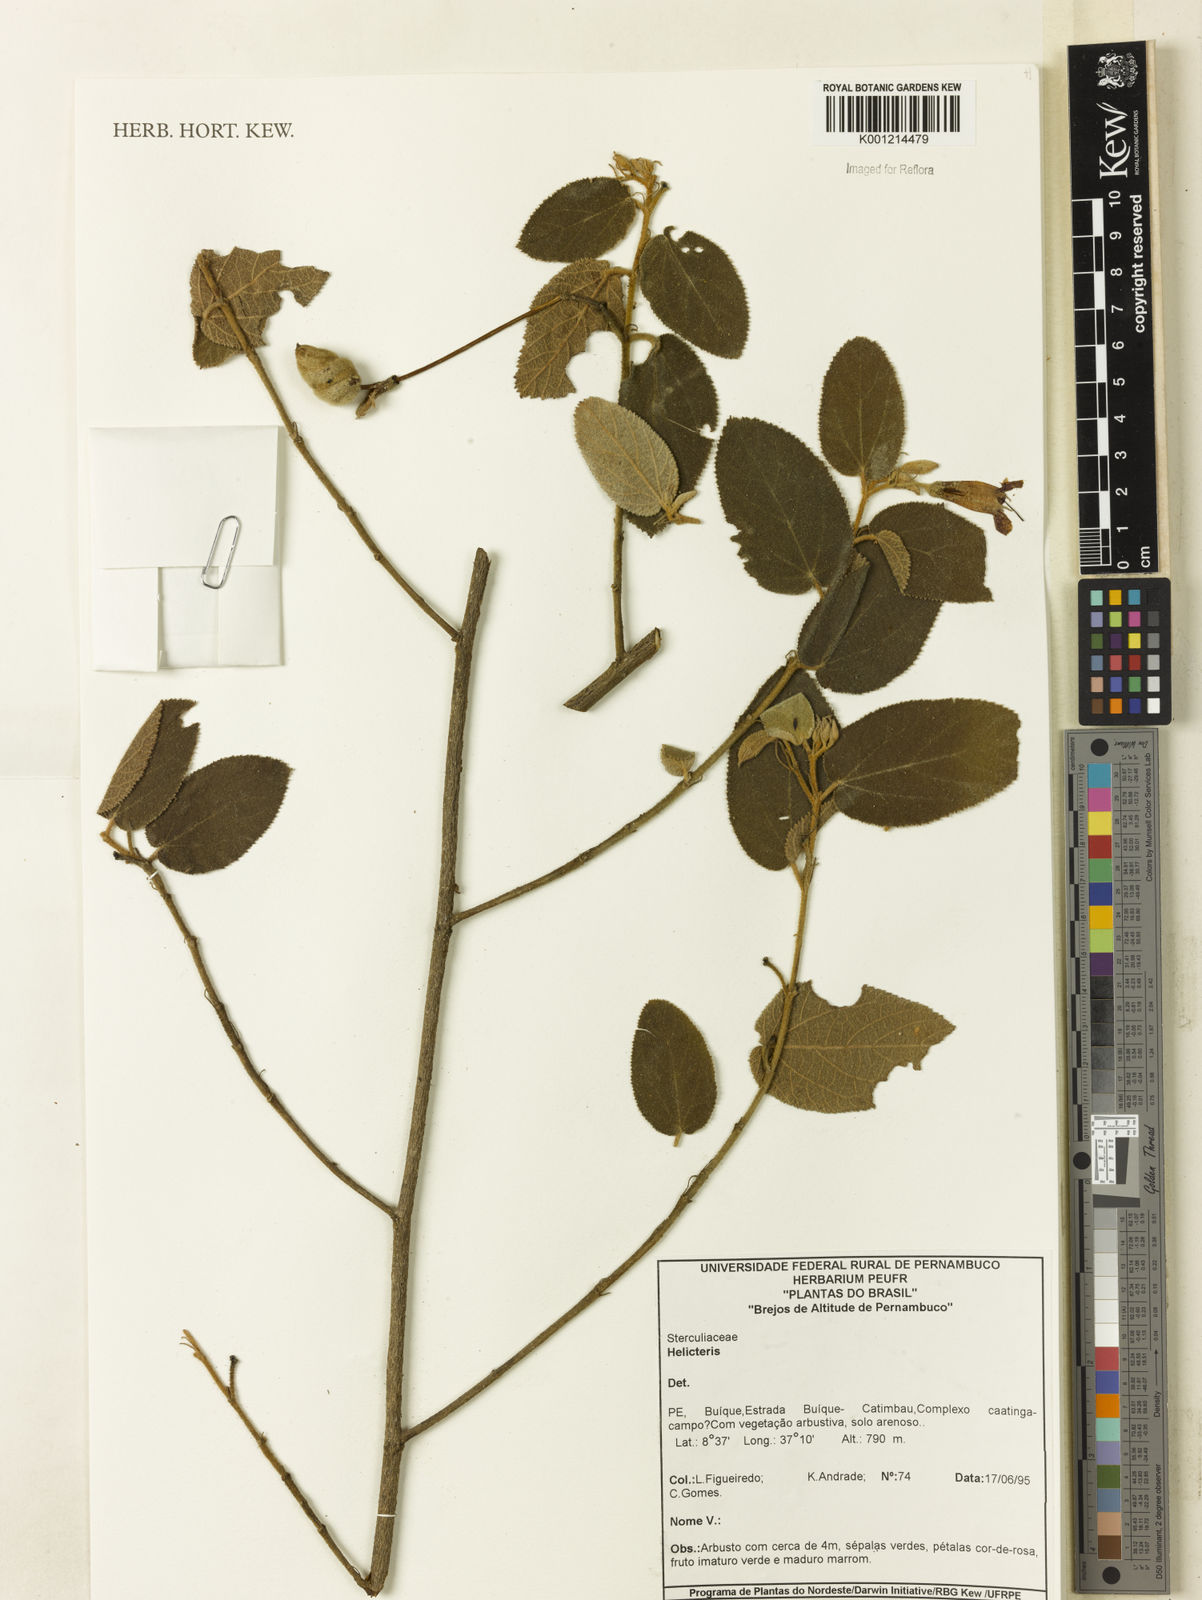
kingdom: Plantae
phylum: Tracheophyta
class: Magnoliopsida
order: Malvales
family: Malvaceae
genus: Helicteres
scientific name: Helicteres
